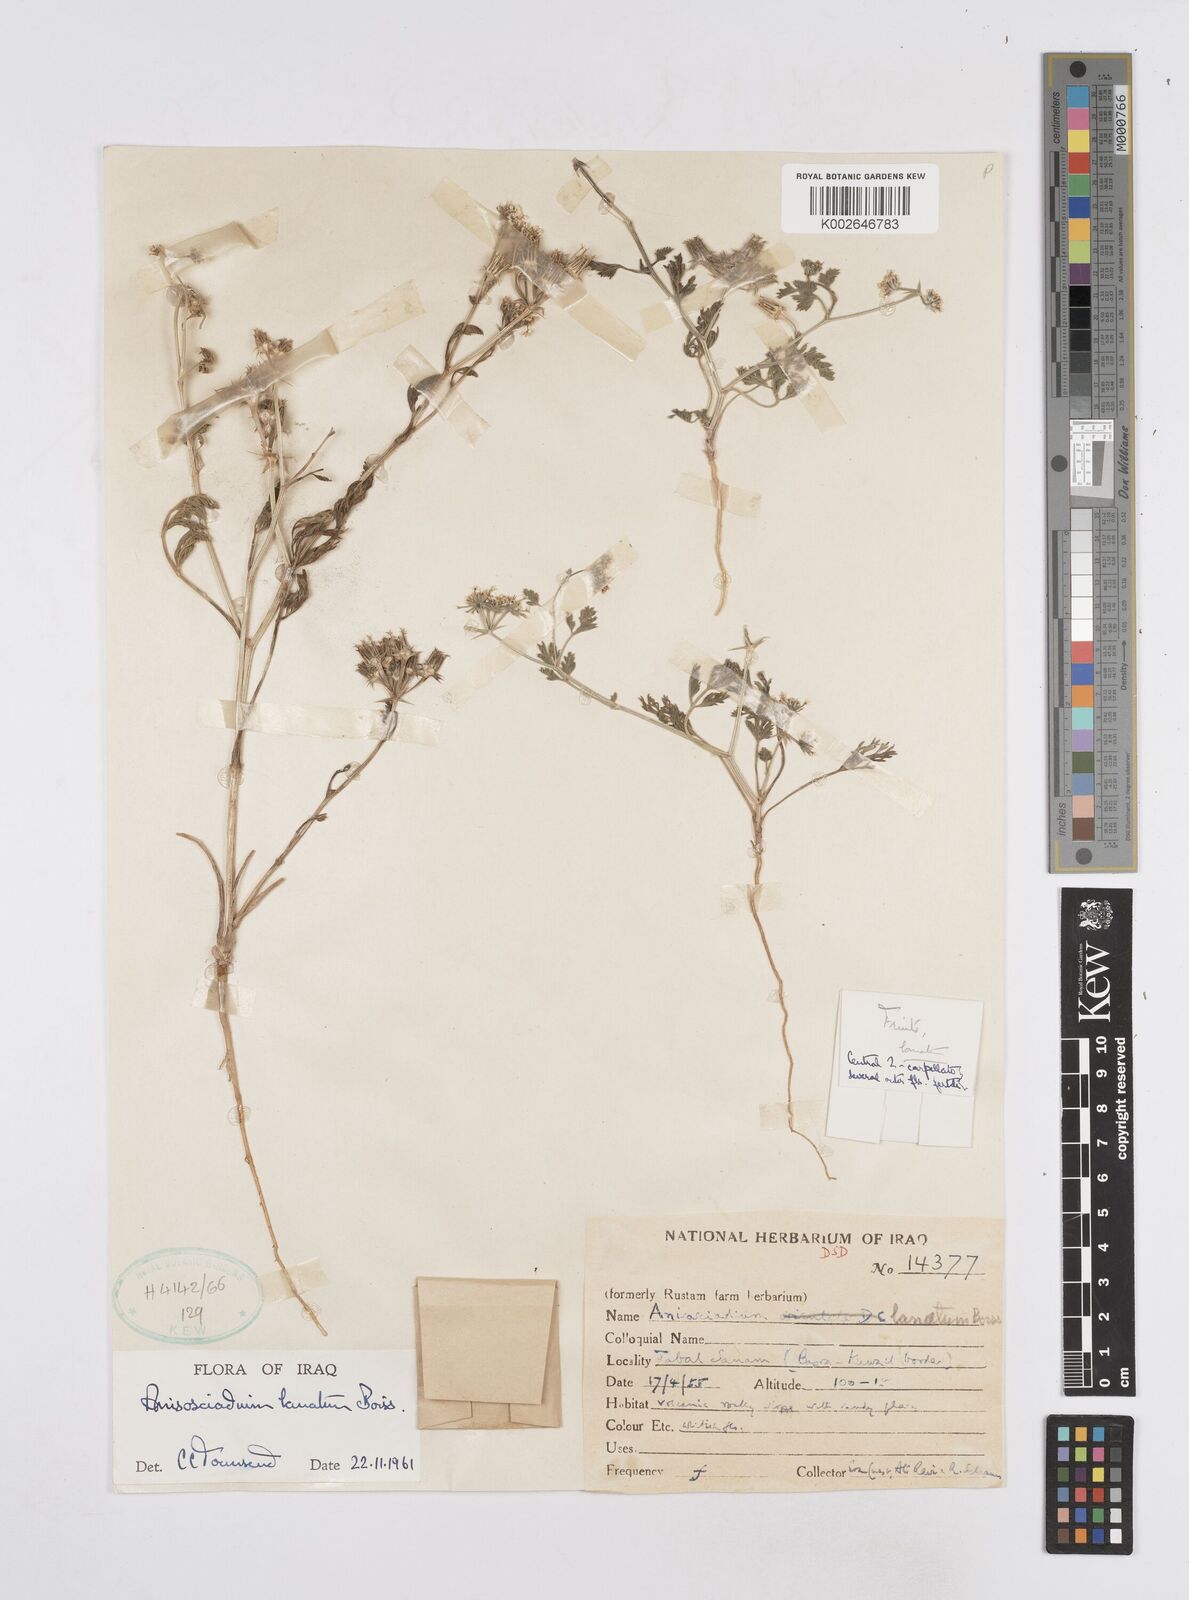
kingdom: Plantae
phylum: Tracheophyta
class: Magnoliopsida
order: Apiales
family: Apiaceae
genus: Anisosciadium
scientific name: Anisosciadium lanatum
